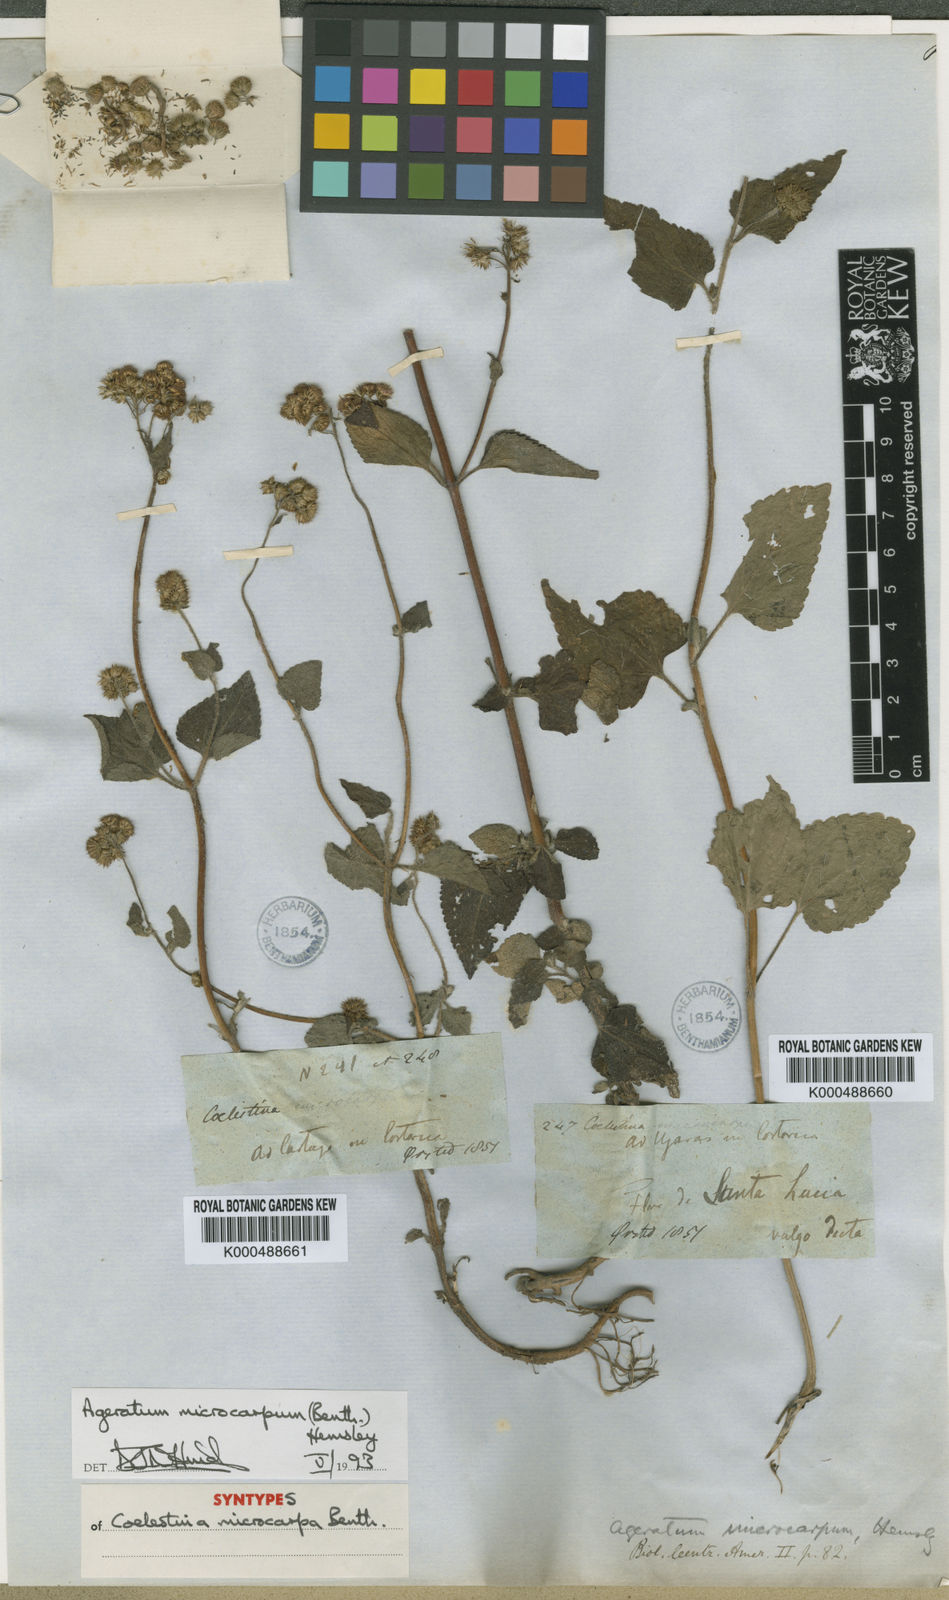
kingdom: Plantae
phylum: Tracheophyta
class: Magnoliopsida
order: Asterales
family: Asteraceae
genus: Ageratum
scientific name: Ageratum microcarpum
